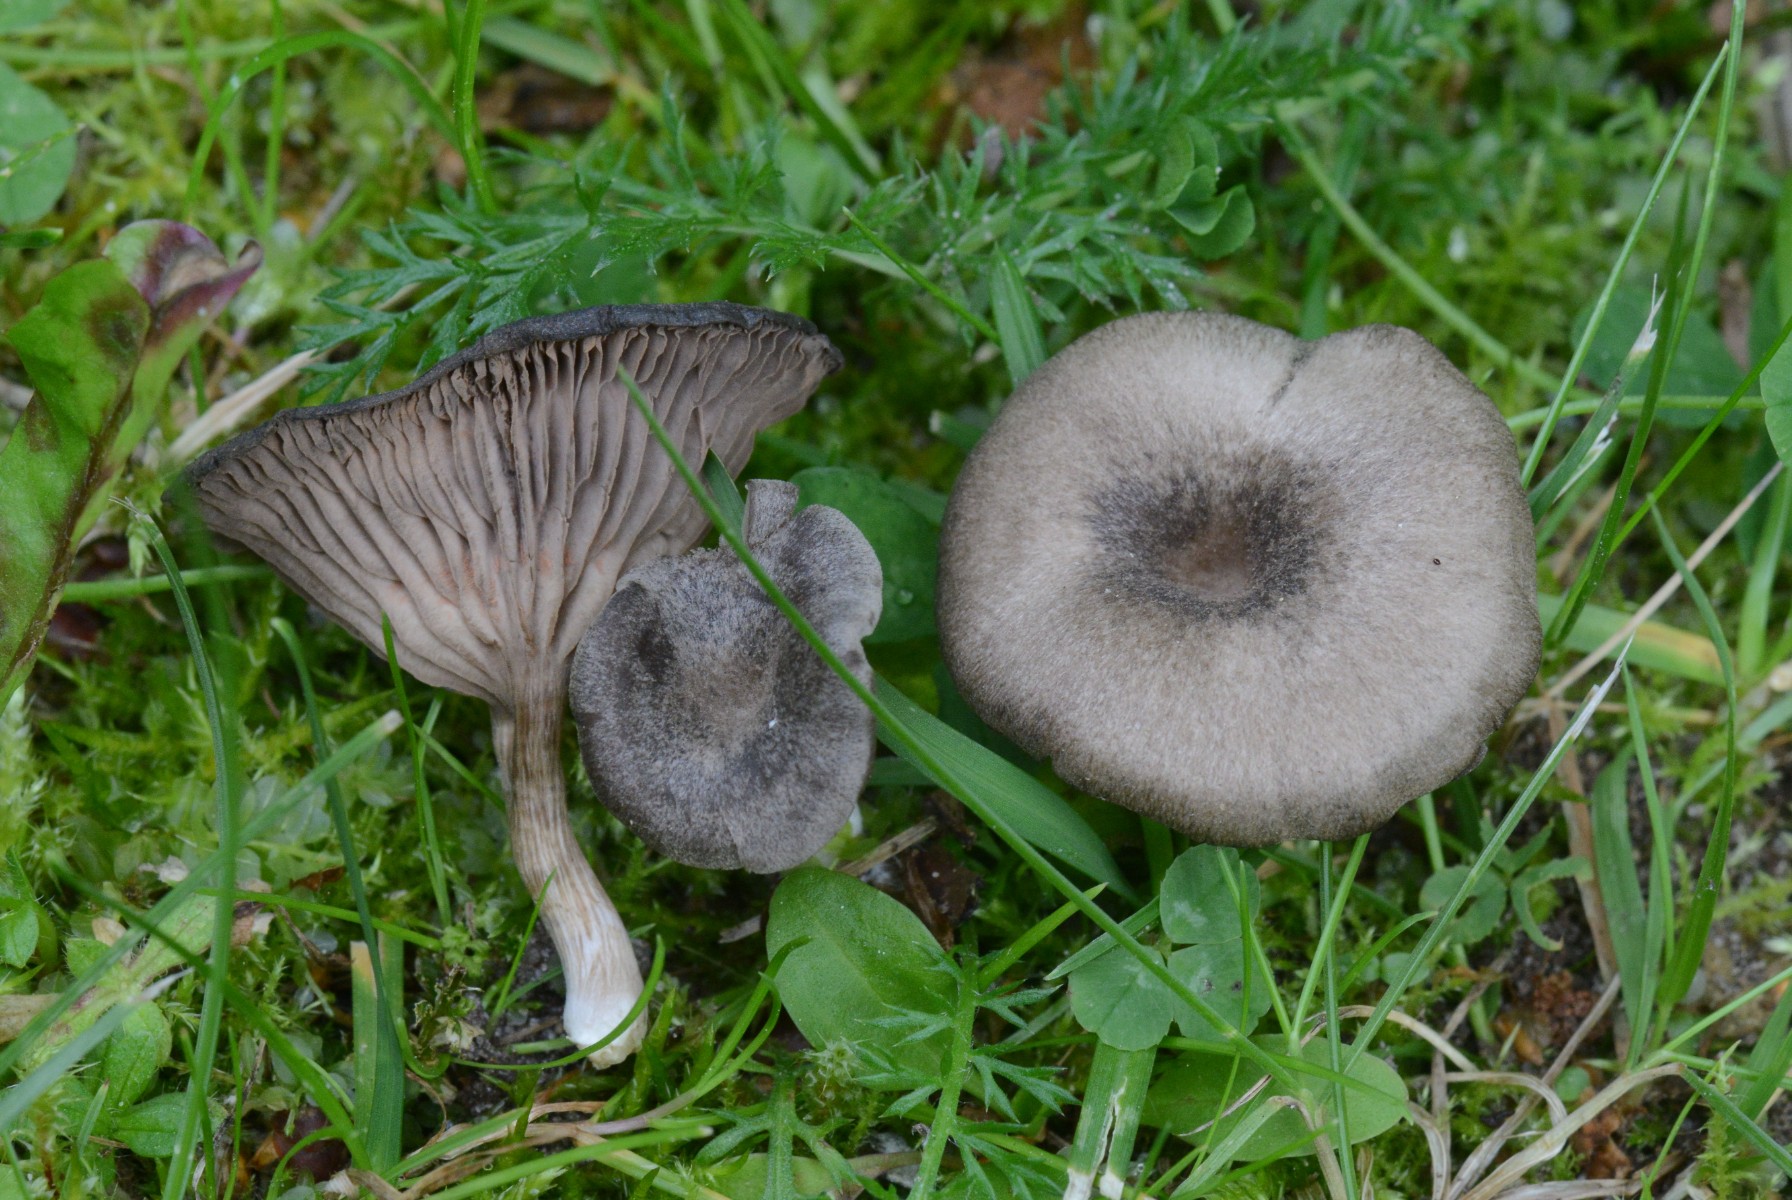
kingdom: Fungi
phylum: Basidiomycota
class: Agaricomycetes
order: Agaricales
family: Entolomataceae
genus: Entoloma
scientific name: Entoloma undatum
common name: bæltet rødblad
